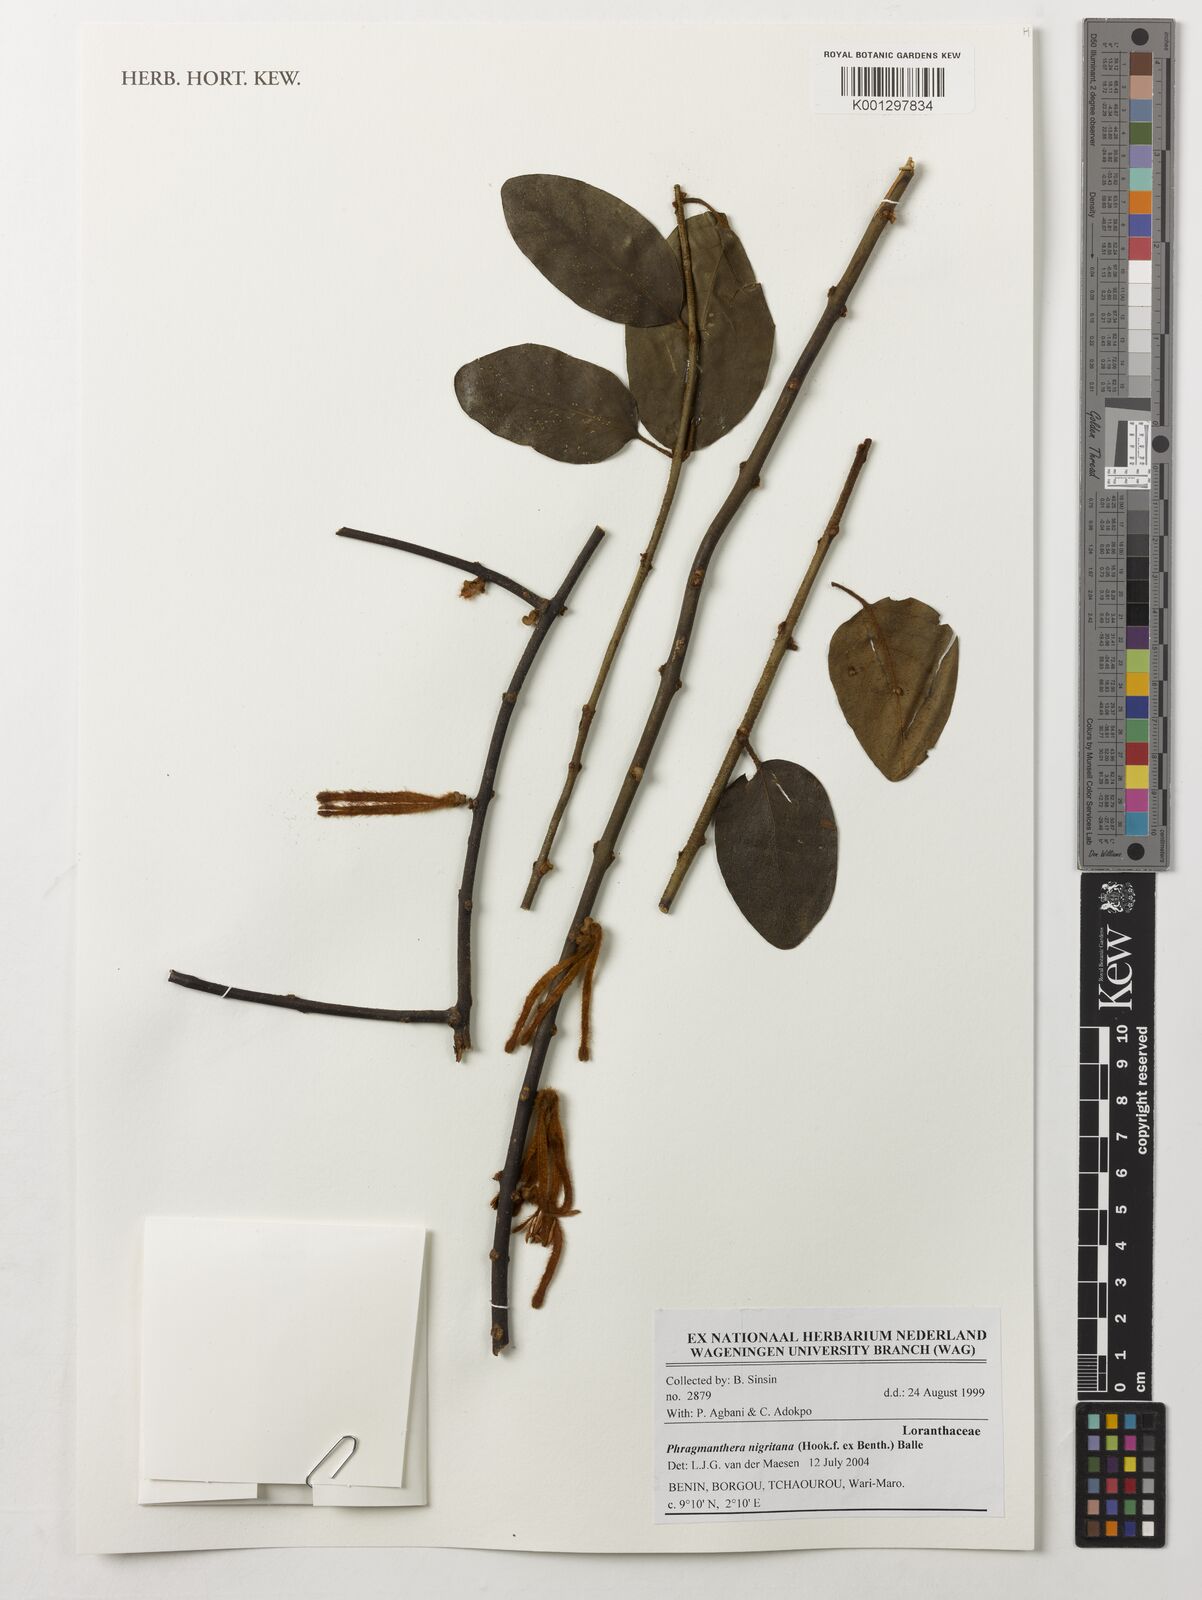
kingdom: Plantae
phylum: Tracheophyta
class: Magnoliopsida
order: Santalales
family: Loranthaceae
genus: Phragmanthera
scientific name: Phragmanthera nigritana
